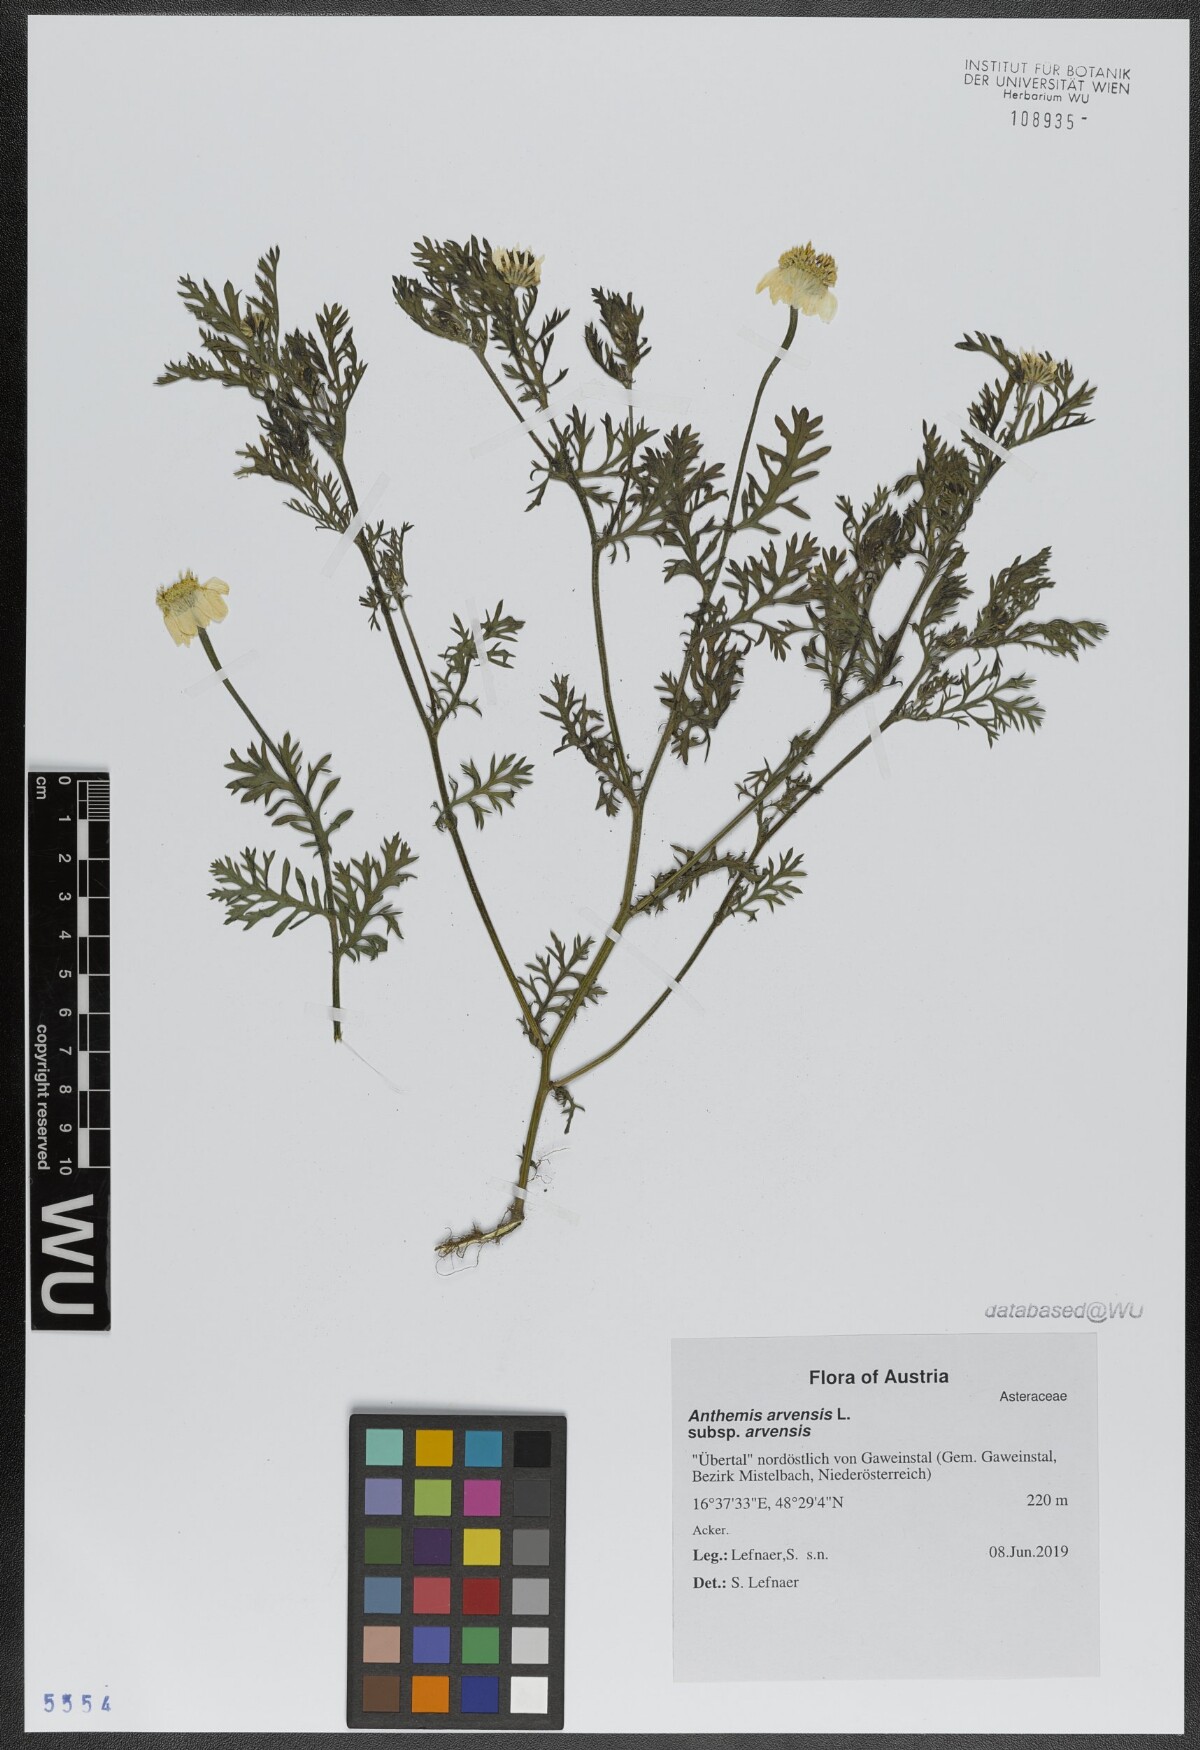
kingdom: Plantae
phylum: Tracheophyta
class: Magnoliopsida
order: Asterales
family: Asteraceae
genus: Anthemis
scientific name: Anthemis arvensis
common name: Corn chamomile
